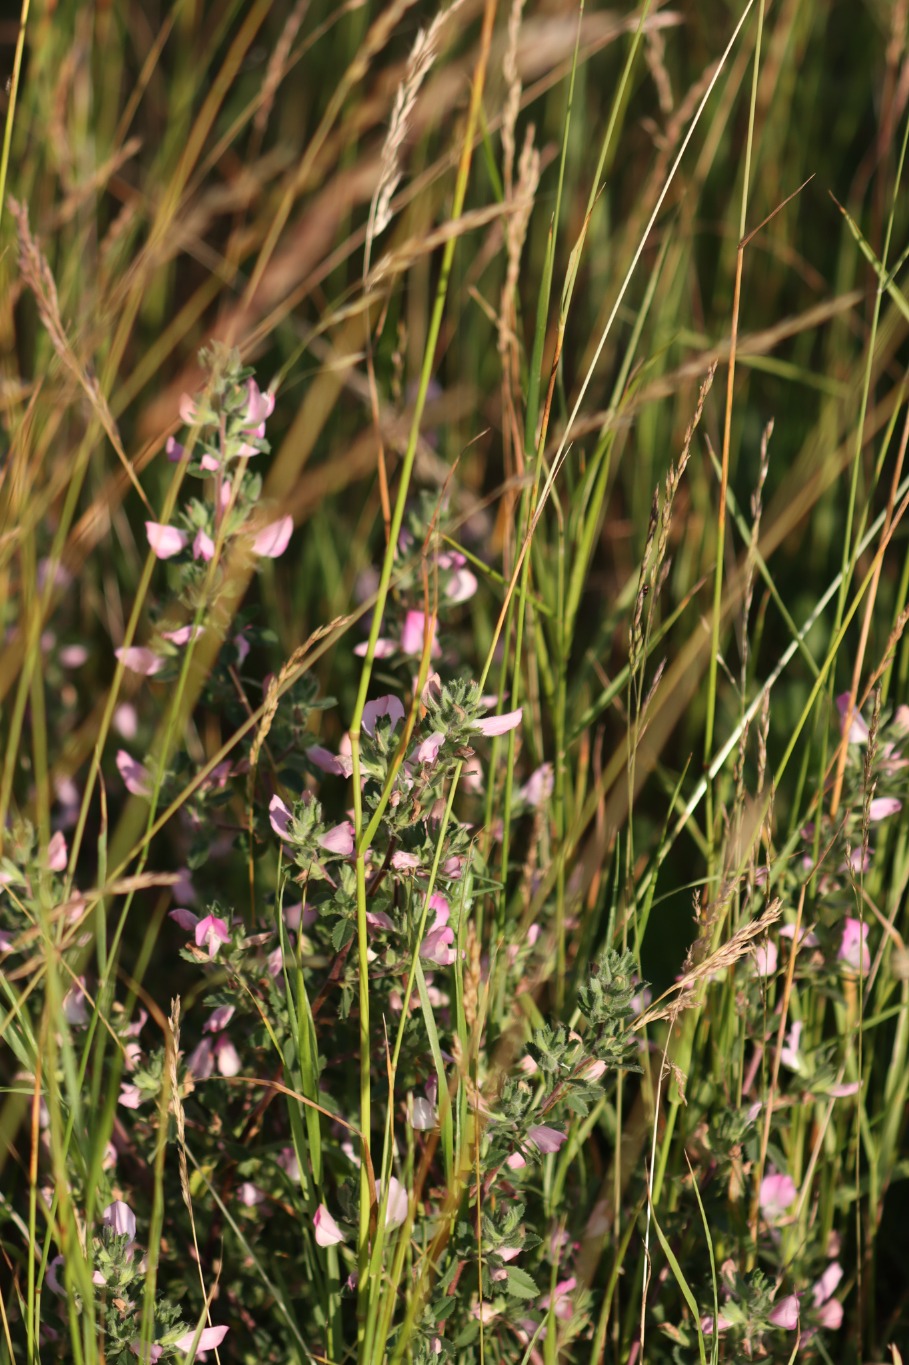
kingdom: Plantae
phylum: Tracheophyta
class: Magnoliopsida
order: Fabales
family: Fabaceae
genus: Ononis
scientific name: Ononis spinosa
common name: Mark-krageklo
